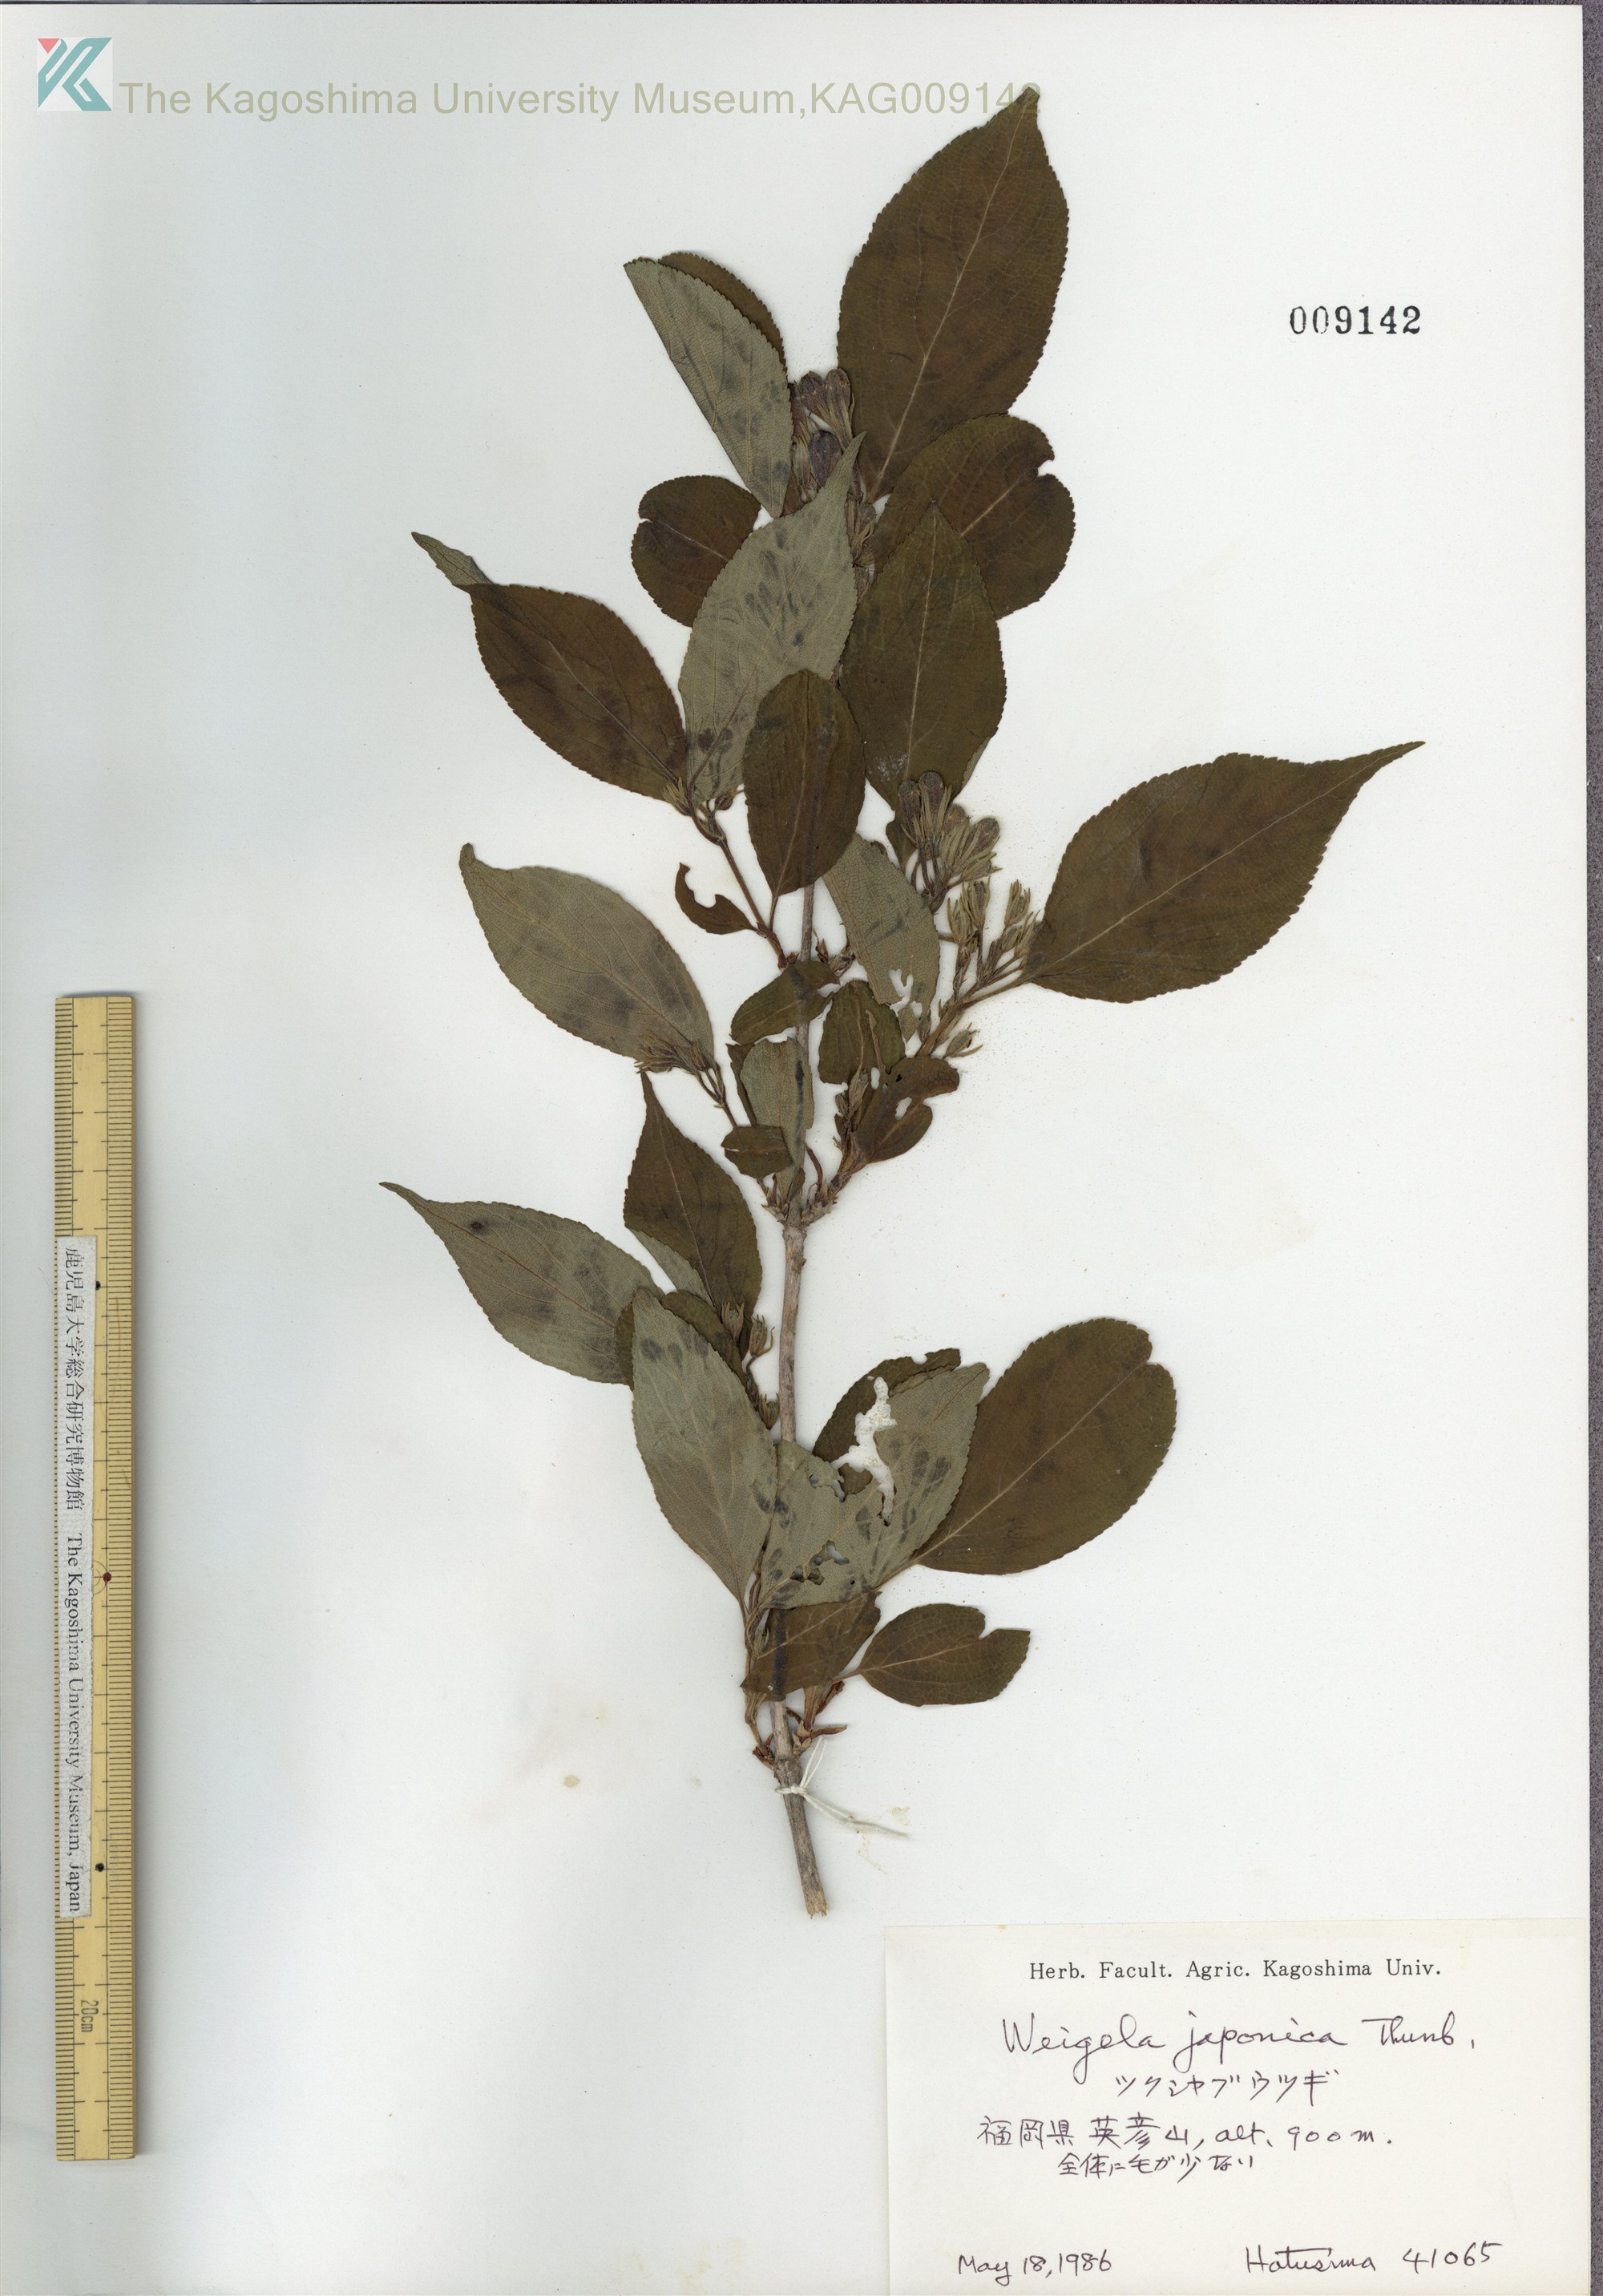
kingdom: Plantae
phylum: Tracheophyta
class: Magnoliopsida
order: Dipsacales
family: Caprifoliaceae
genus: Weigela
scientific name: Weigela japonica
